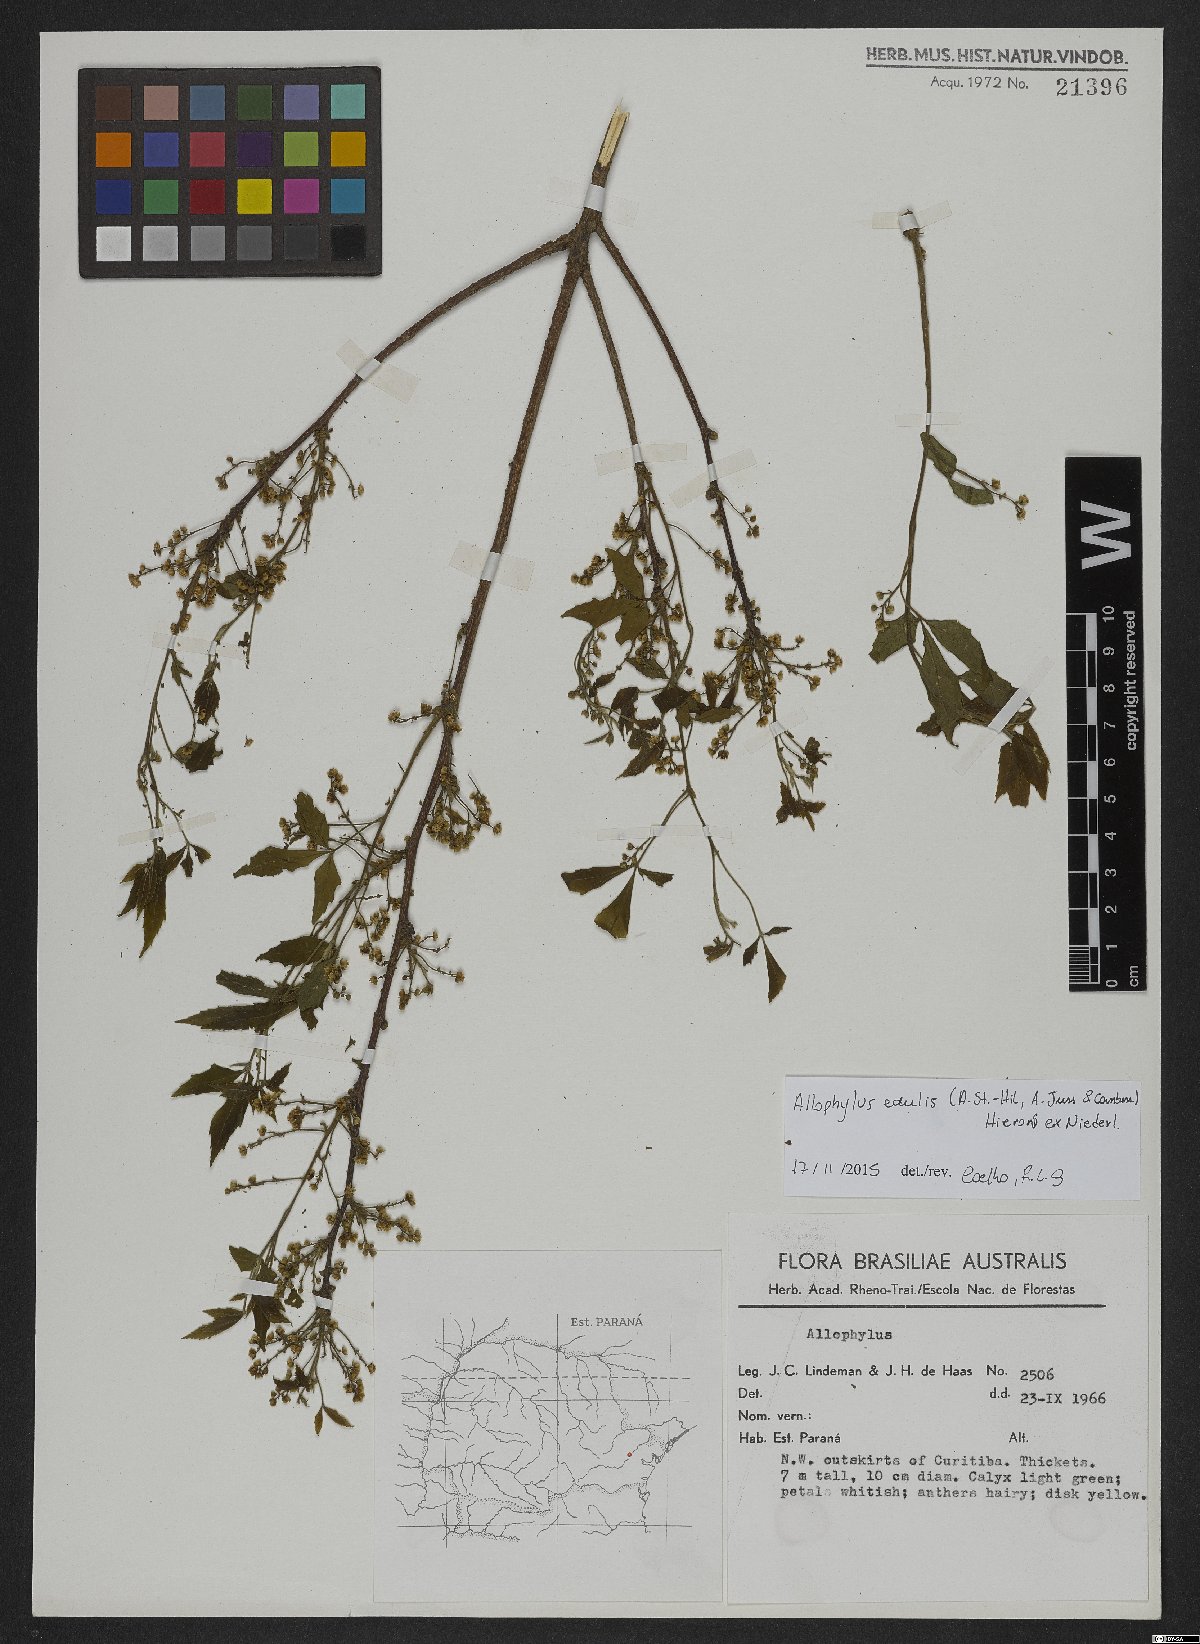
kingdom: Plantae
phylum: Tracheophyta
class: Magnoliopsida
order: Sapindales
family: Sapindaceae
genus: Allophylus
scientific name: Allophylus edulis
